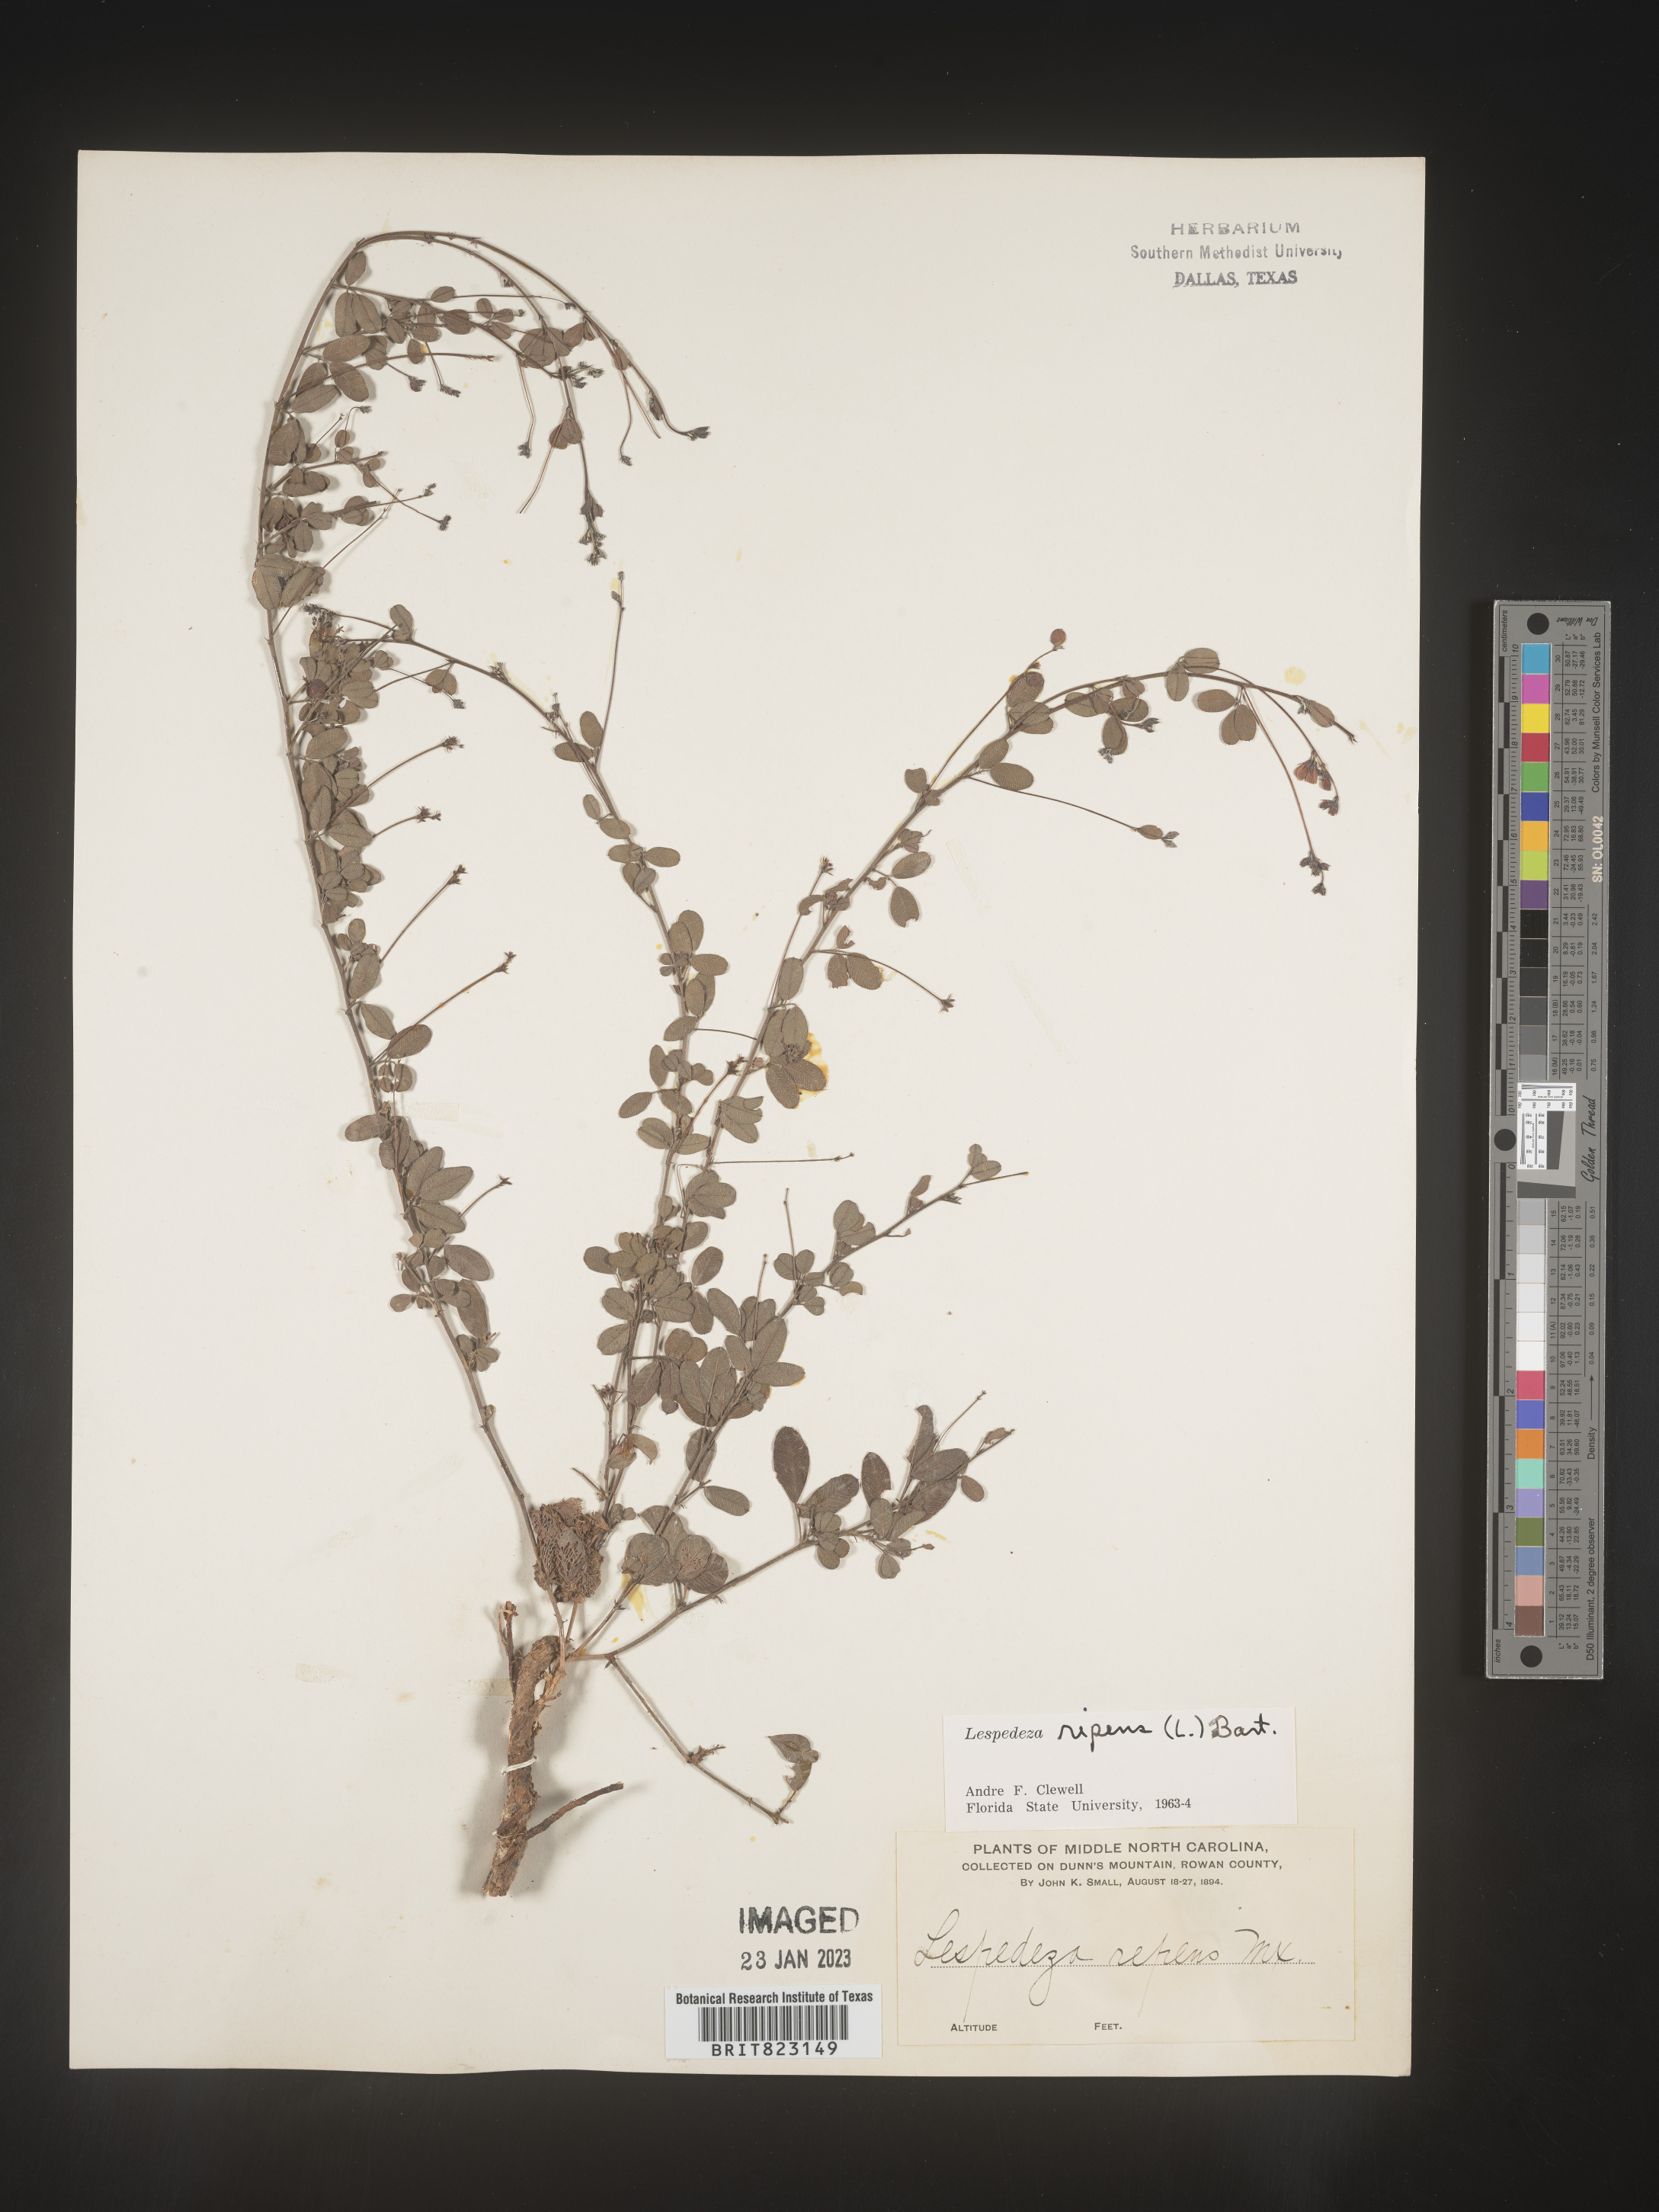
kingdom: Plantae
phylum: Tracheophyta
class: Magnoliopsida
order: Fabales
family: Fabaceae
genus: Lespedeza
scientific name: Lespedeza repens
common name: Creeping bush-clover
